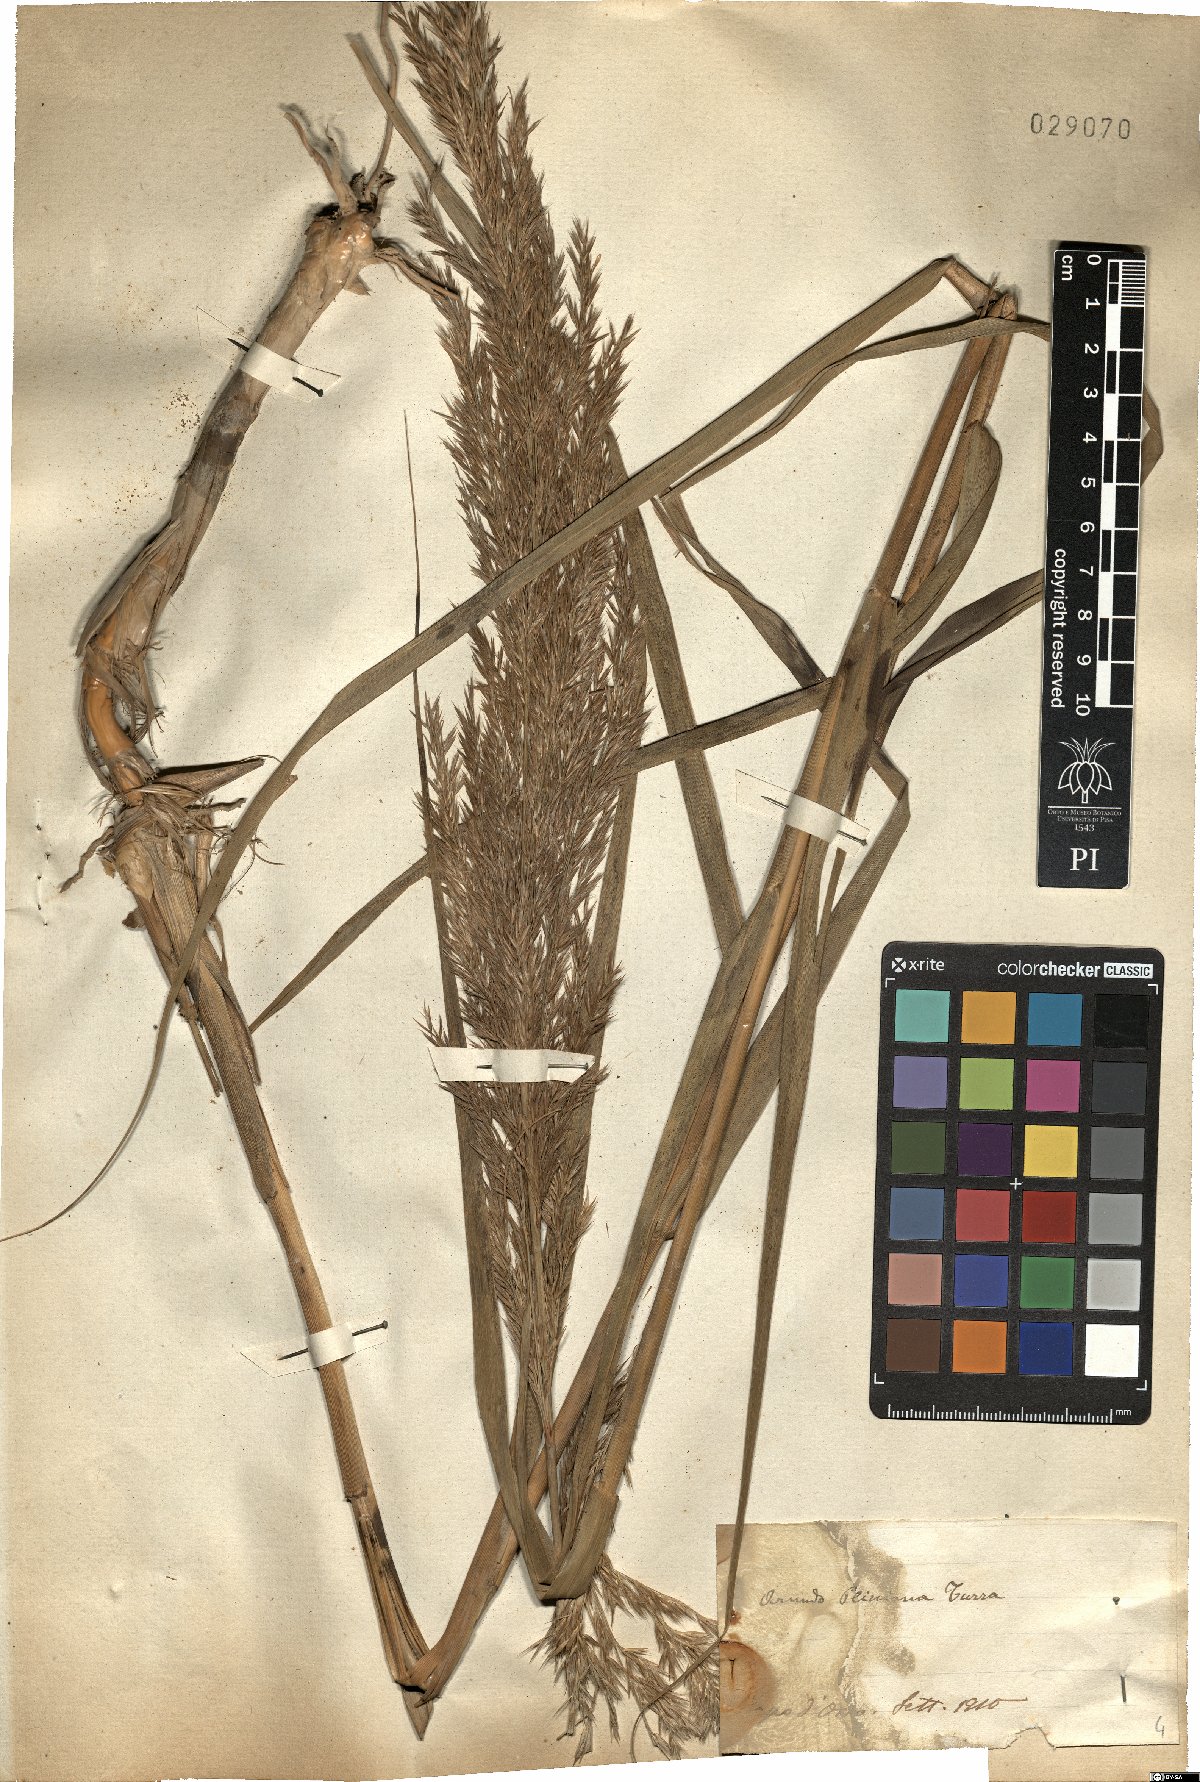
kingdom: Plantae
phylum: Tracheophyta
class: Liliopsida
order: Poales
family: Poaceae
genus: Arundo
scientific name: Arundo plinii
